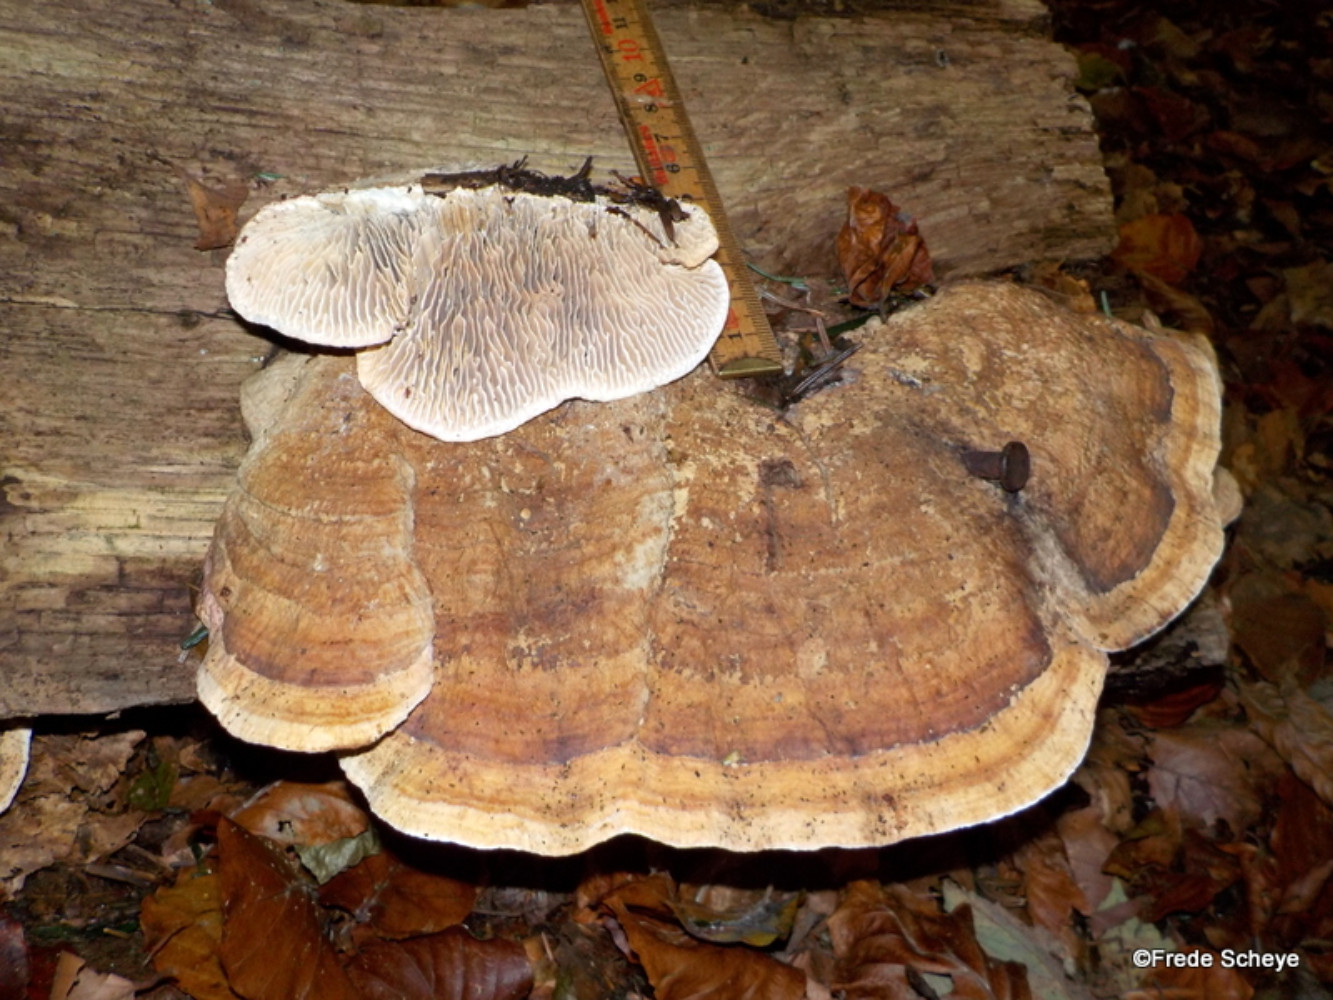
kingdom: Fungi
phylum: Basidiomycota
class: Agaricomycetes
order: Polyporales
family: Fomitopsidaceae
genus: Daedalea
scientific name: Daedalea quercina
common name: ege-labyrintsvamp
